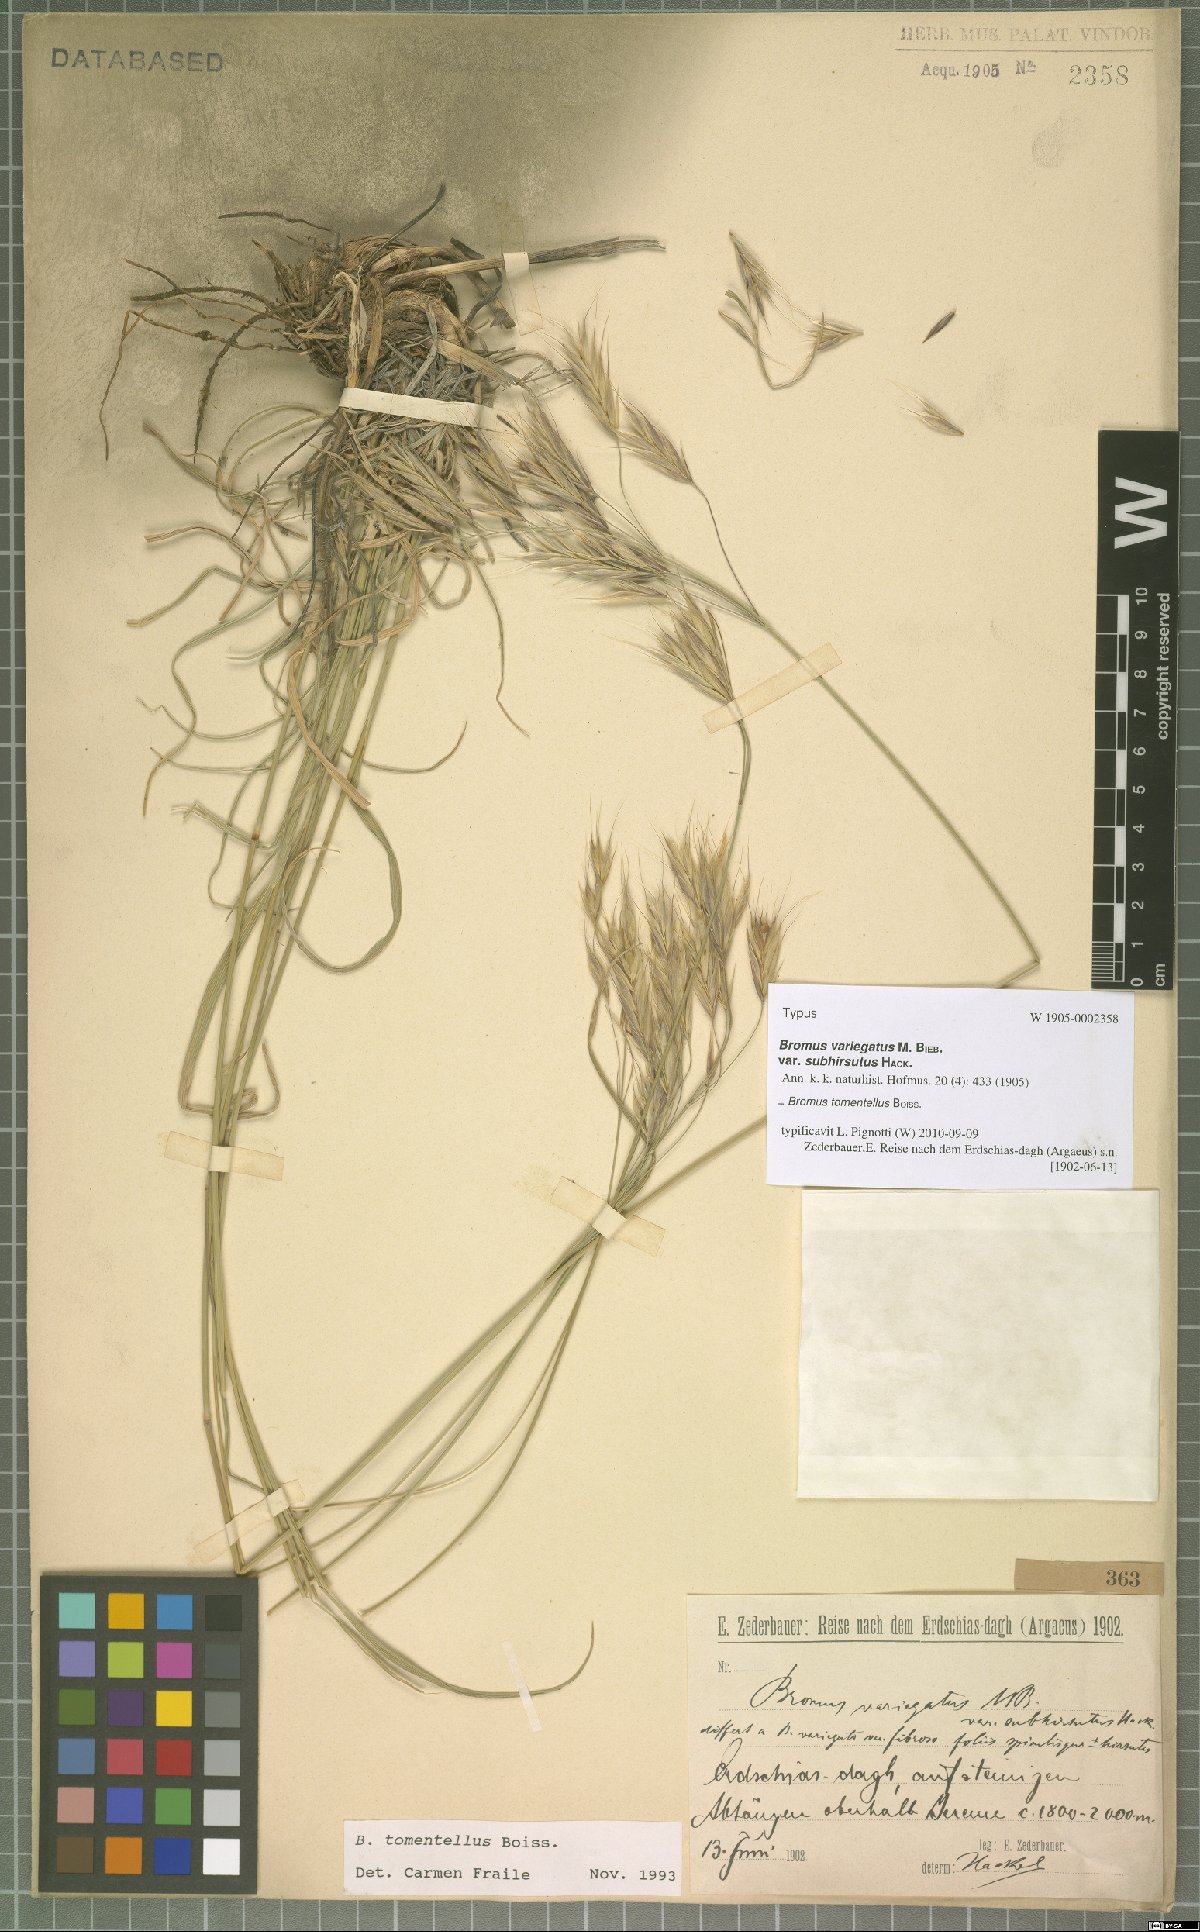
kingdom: Plantae
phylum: Tracheophyta
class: Liliopsida
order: Poales
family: Poaceae
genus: Bromus
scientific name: Bromus tomentellus
